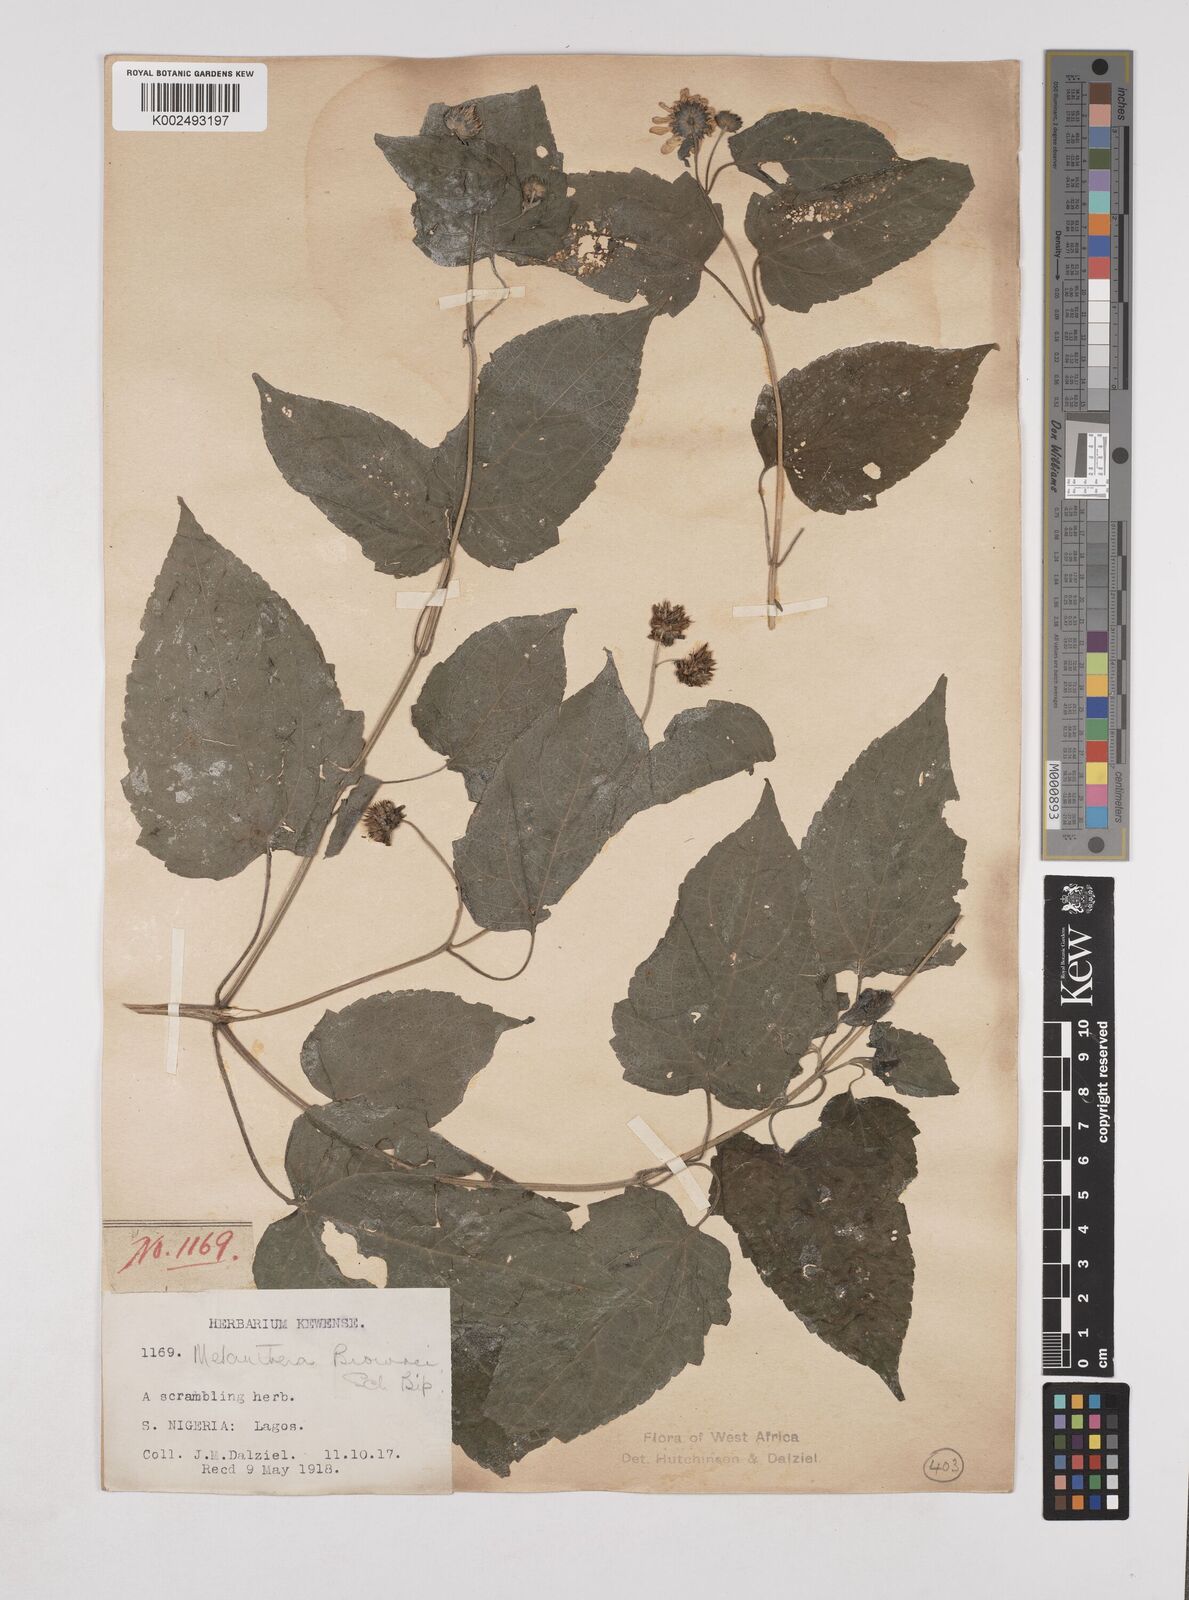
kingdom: Plantae
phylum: Tracheophyta
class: Magnoliopsida
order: Asterales
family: Asteraceae
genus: Lipotriche
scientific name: Lipotriche scandens
